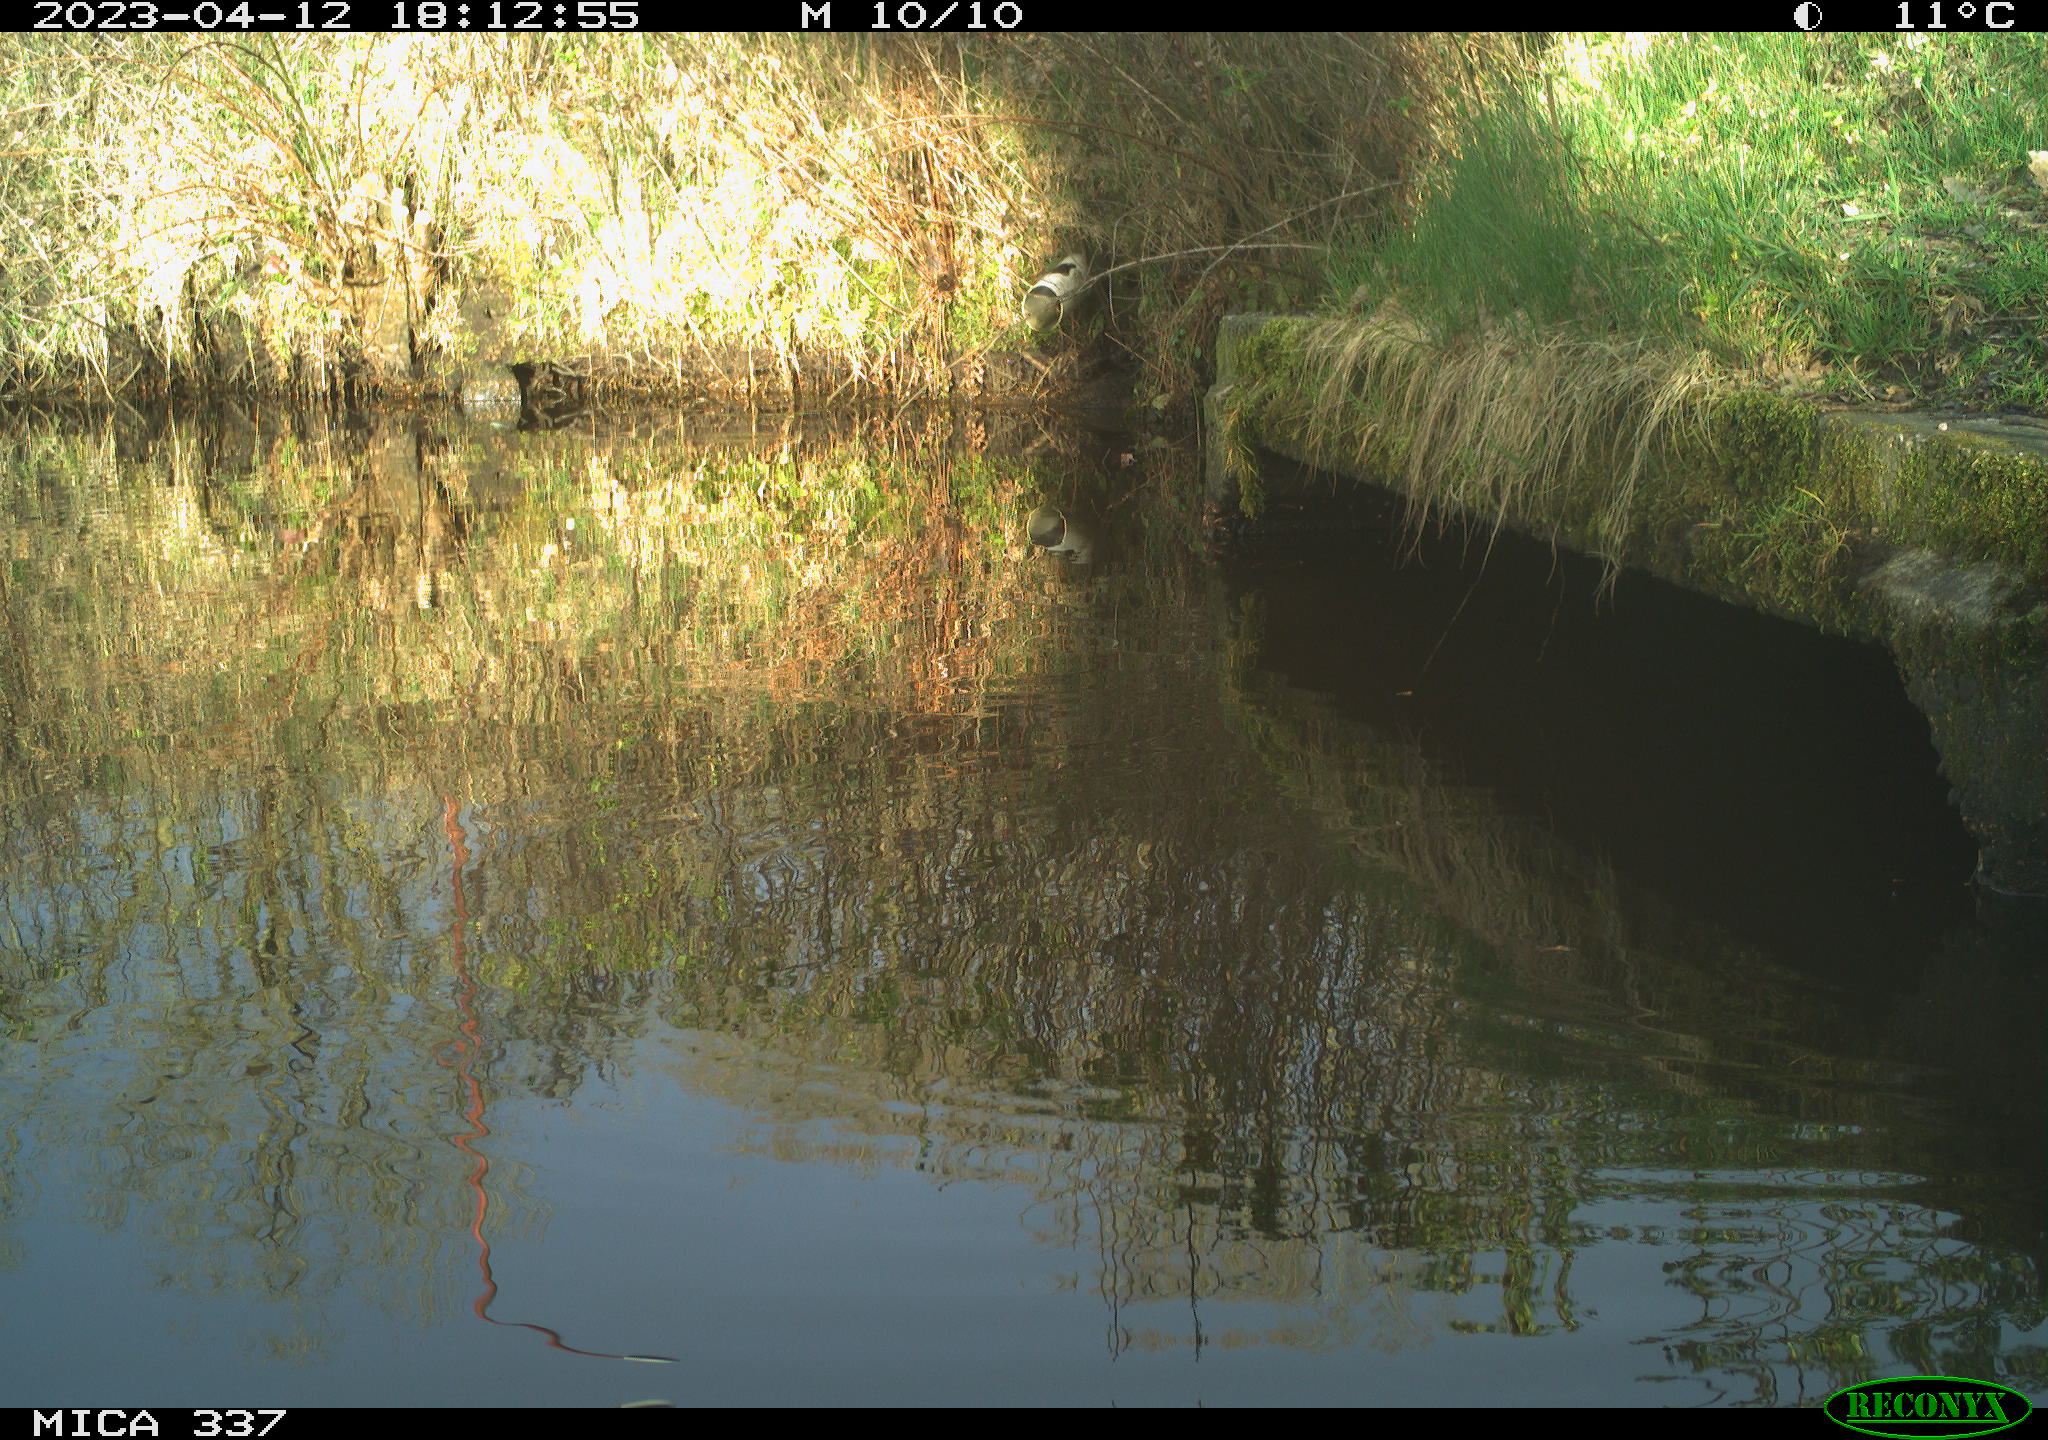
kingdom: Animalia
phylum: Chordata
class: Aves
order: Gruiformes
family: Rallidae
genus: Gallinula
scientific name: Gallinula chloropus
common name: Common moorhen
